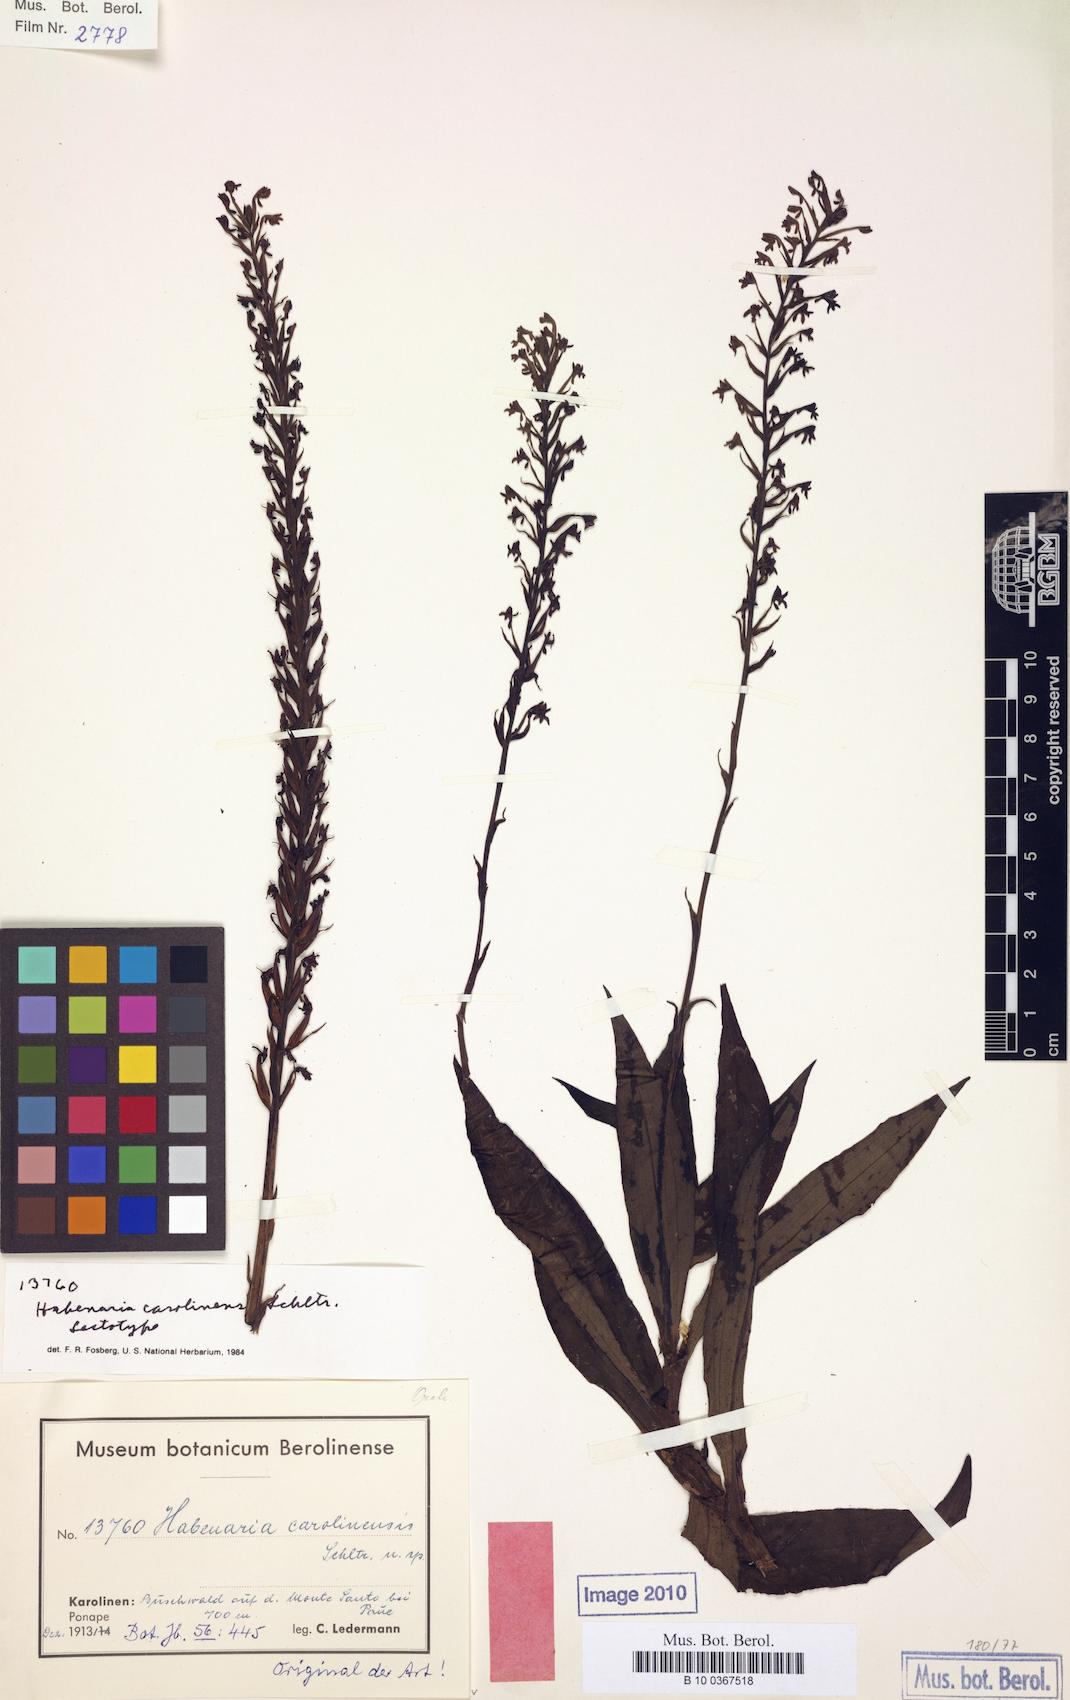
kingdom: Plantae
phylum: Tracheophyta
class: Liliopsida
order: Asparagales
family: Orchidaceae
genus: Peristylus
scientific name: Peristylus carolinensis
